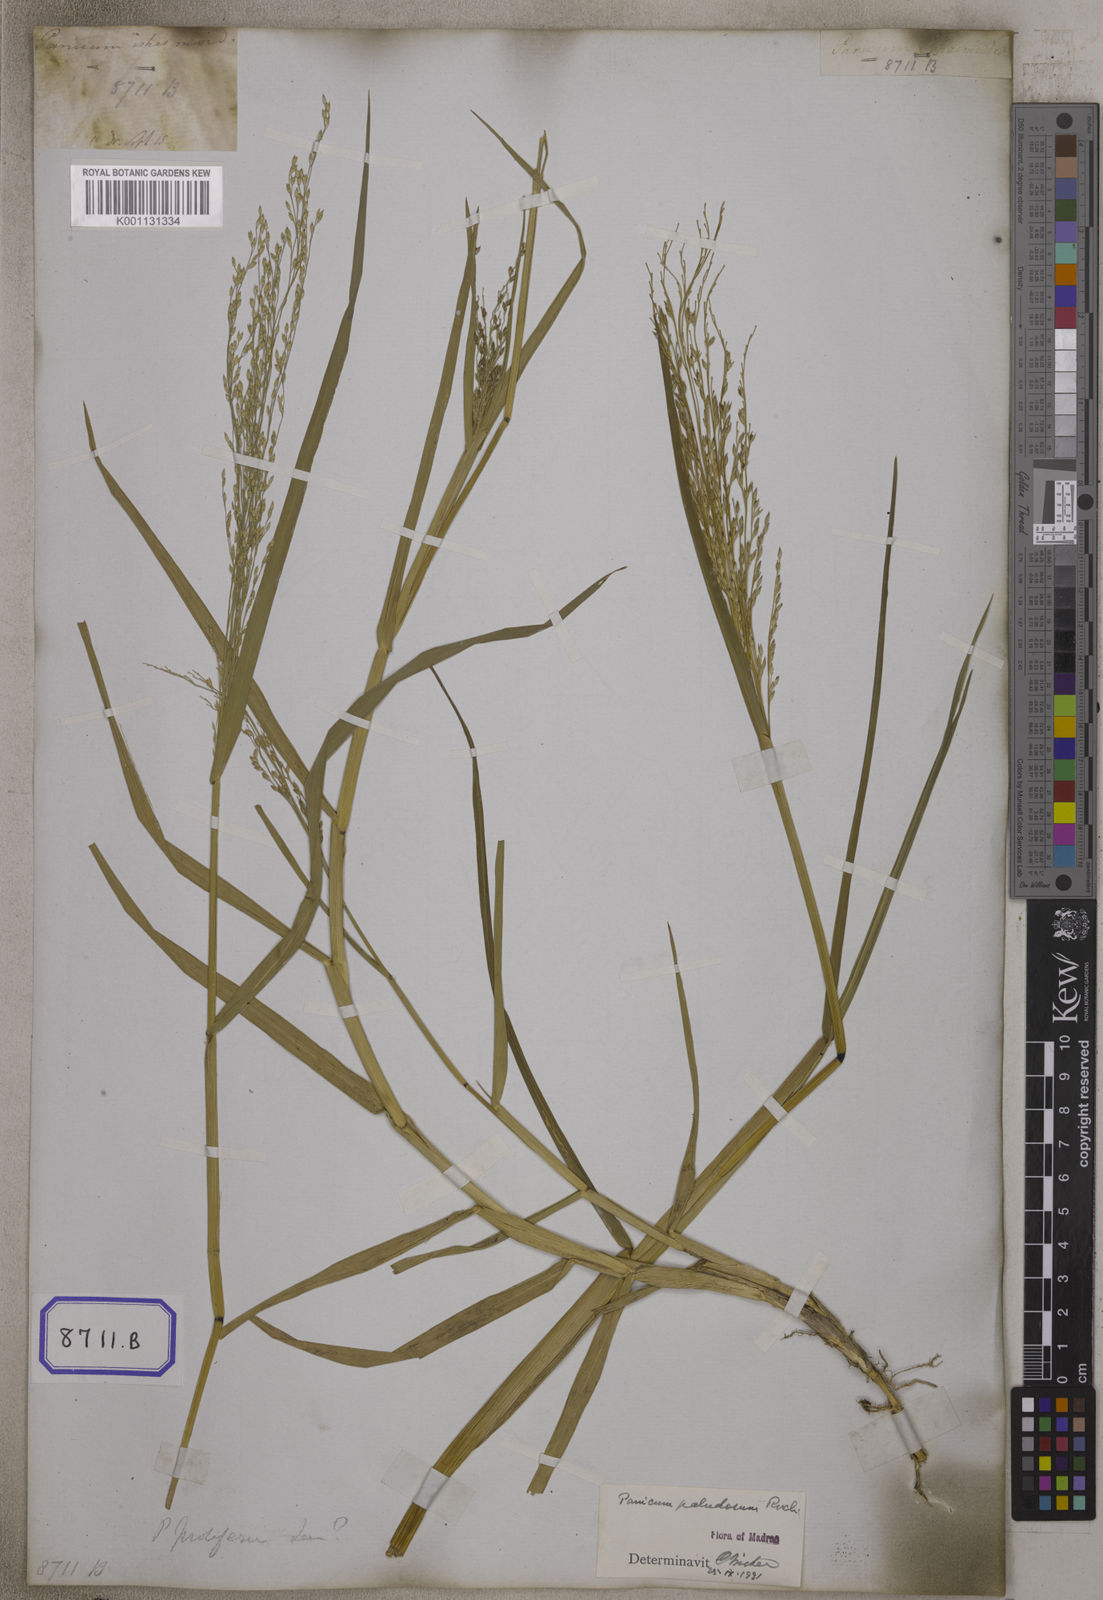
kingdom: Plantae
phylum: Tracheophyta
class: Liliopsida
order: Poales
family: Poaceae
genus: Louisiella
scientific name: Louisiella paludosa
